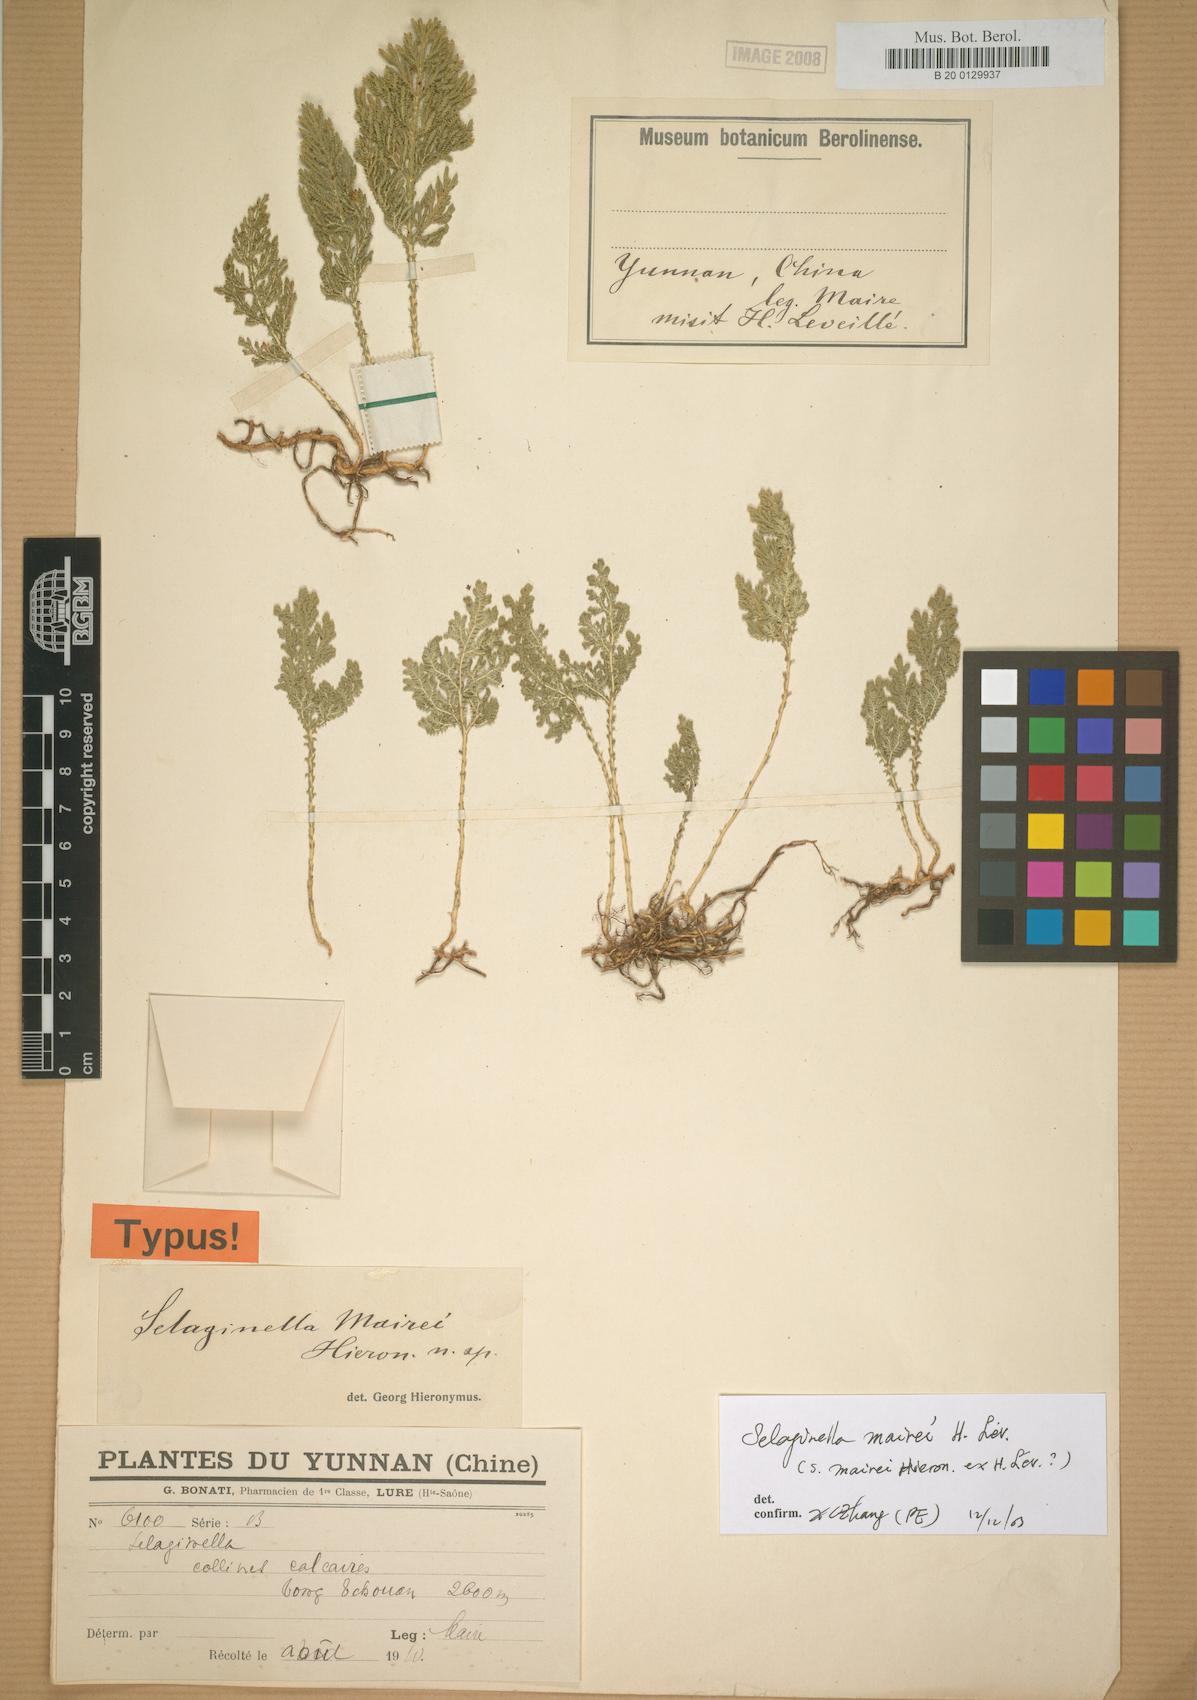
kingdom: Plantae
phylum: Tracheophyta
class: Lycopodiopsida
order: Selaginellales
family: Selaginellaceae
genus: Selaginella
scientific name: Selaginella mairei
